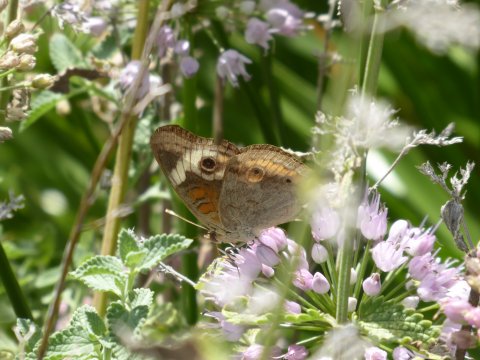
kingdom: Animalia
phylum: Arthropoda
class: Insecta
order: Lepidoptera
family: Nymphalidae
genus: Junonia
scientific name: Junonia coenia
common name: Common Buckeye
